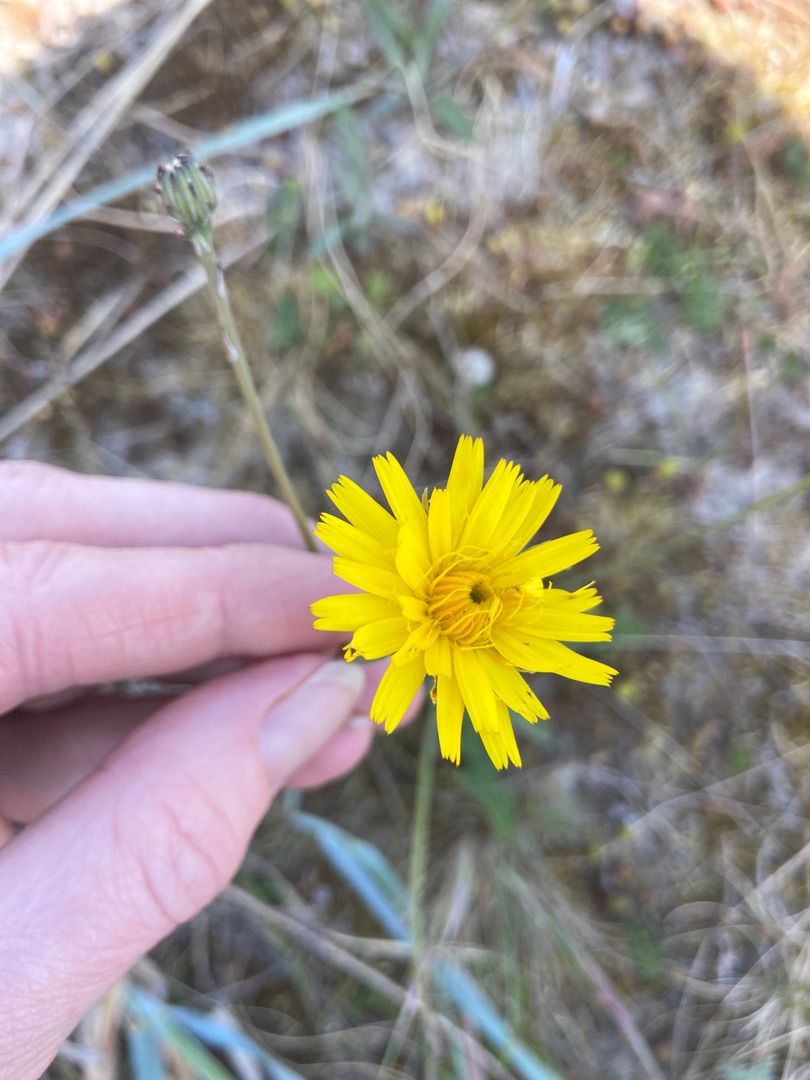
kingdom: Plantae
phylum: Tracheophyta
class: Magnoliopsida
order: Asterales
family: Asteraceae
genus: Hypochaeris
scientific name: Hypochaeris radicata
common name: Almindelig kongepen
